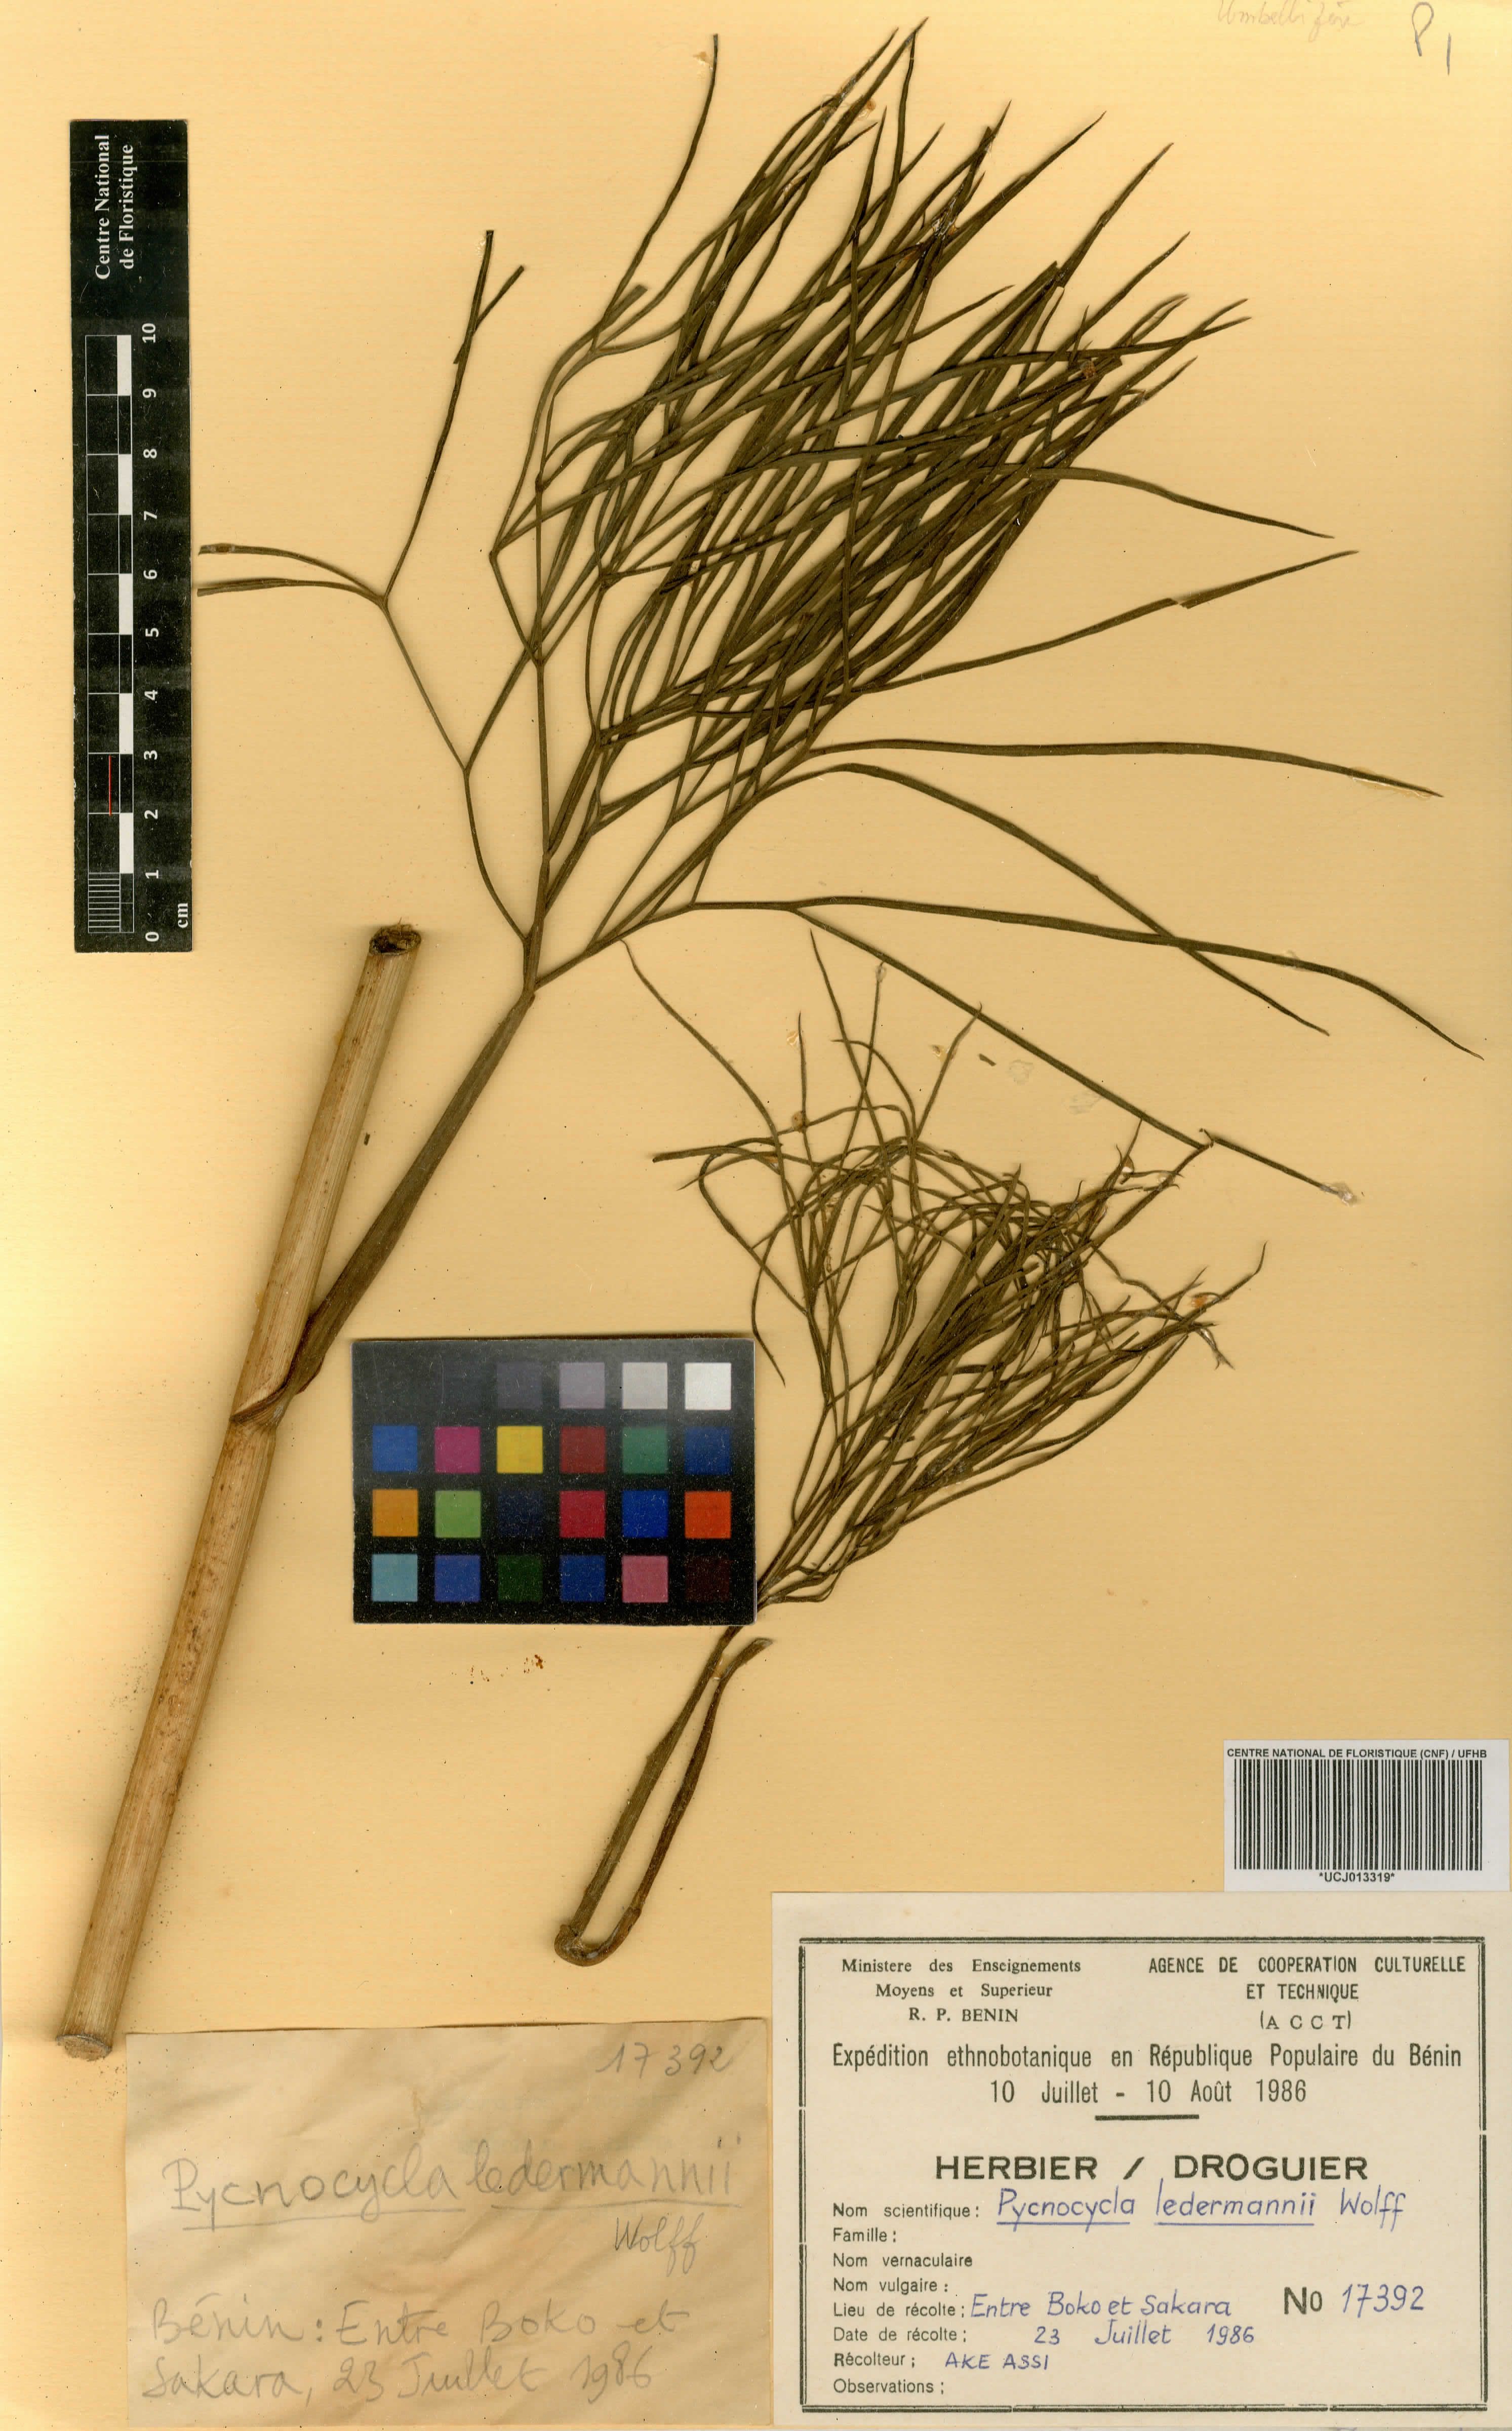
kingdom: Plantae
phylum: Tracheophyta
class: Magnoliopsida
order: Apiales
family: Apiaceae
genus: Pycnocycla
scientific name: Pycnocycla ledermannii
